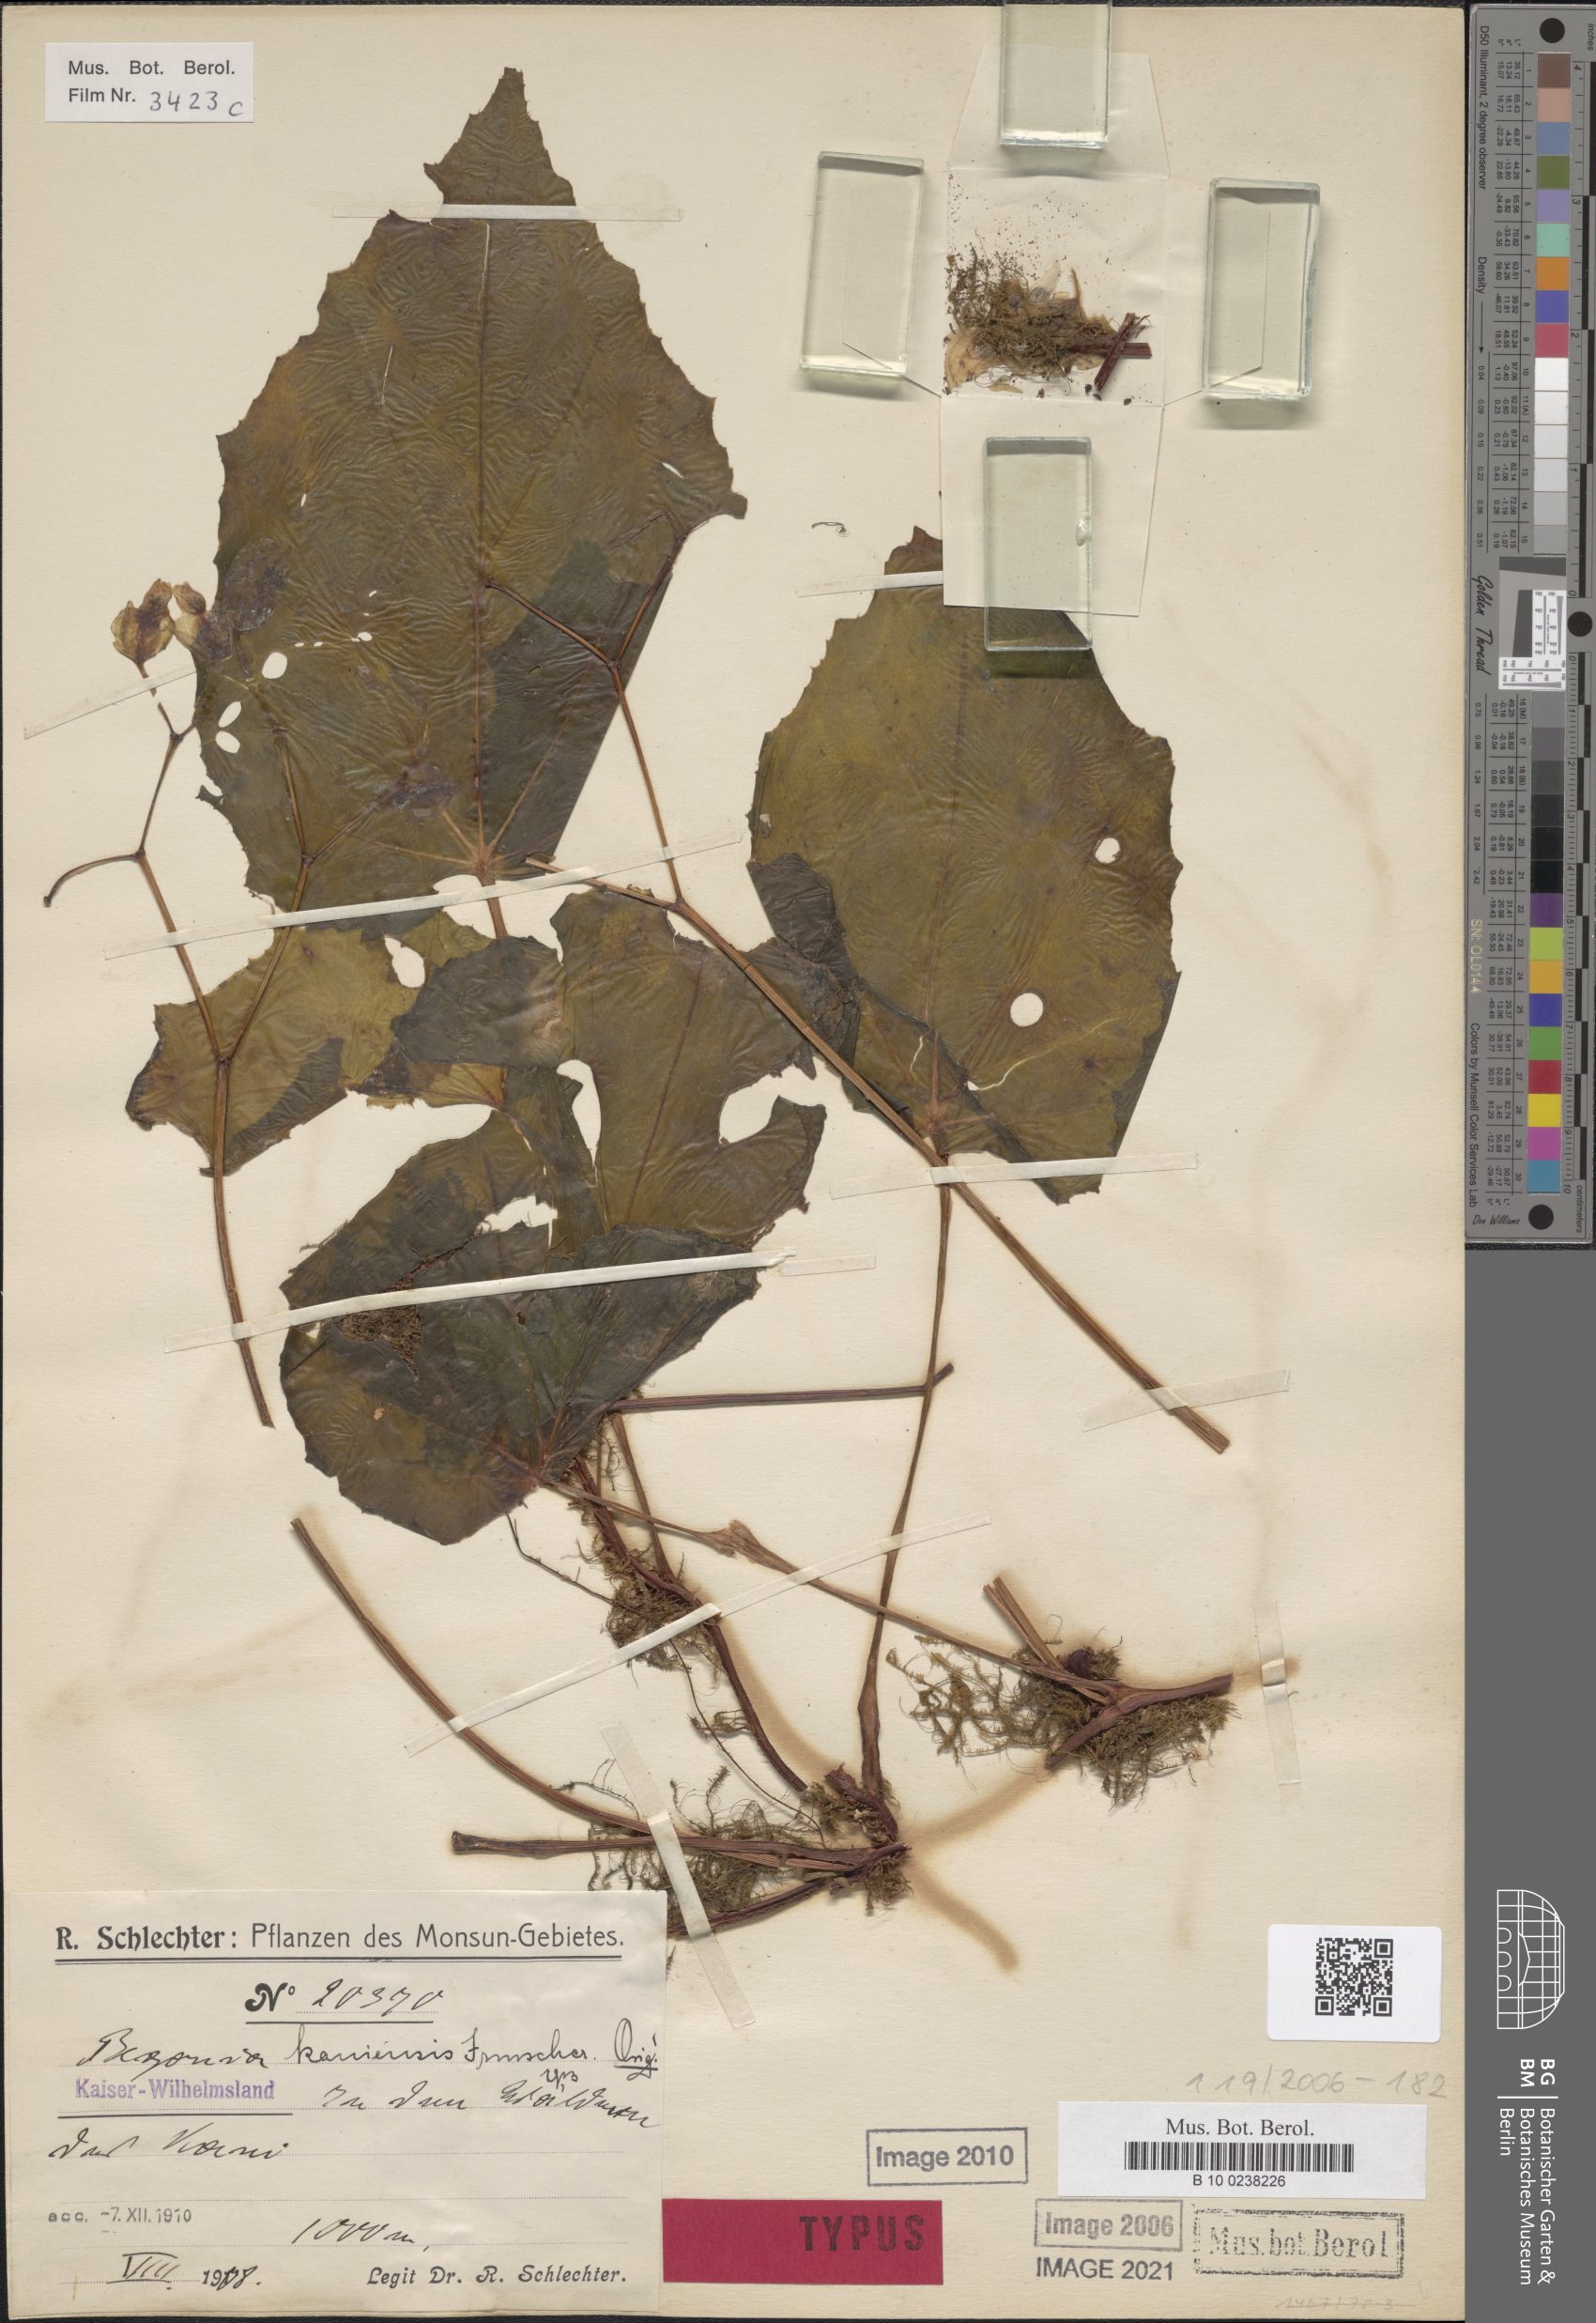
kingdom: Plantae
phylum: Tracheophyta
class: Magnoliopsida
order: Cucurbitales
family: Begoniaceae
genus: Begonia
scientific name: Begonia kaniensis
